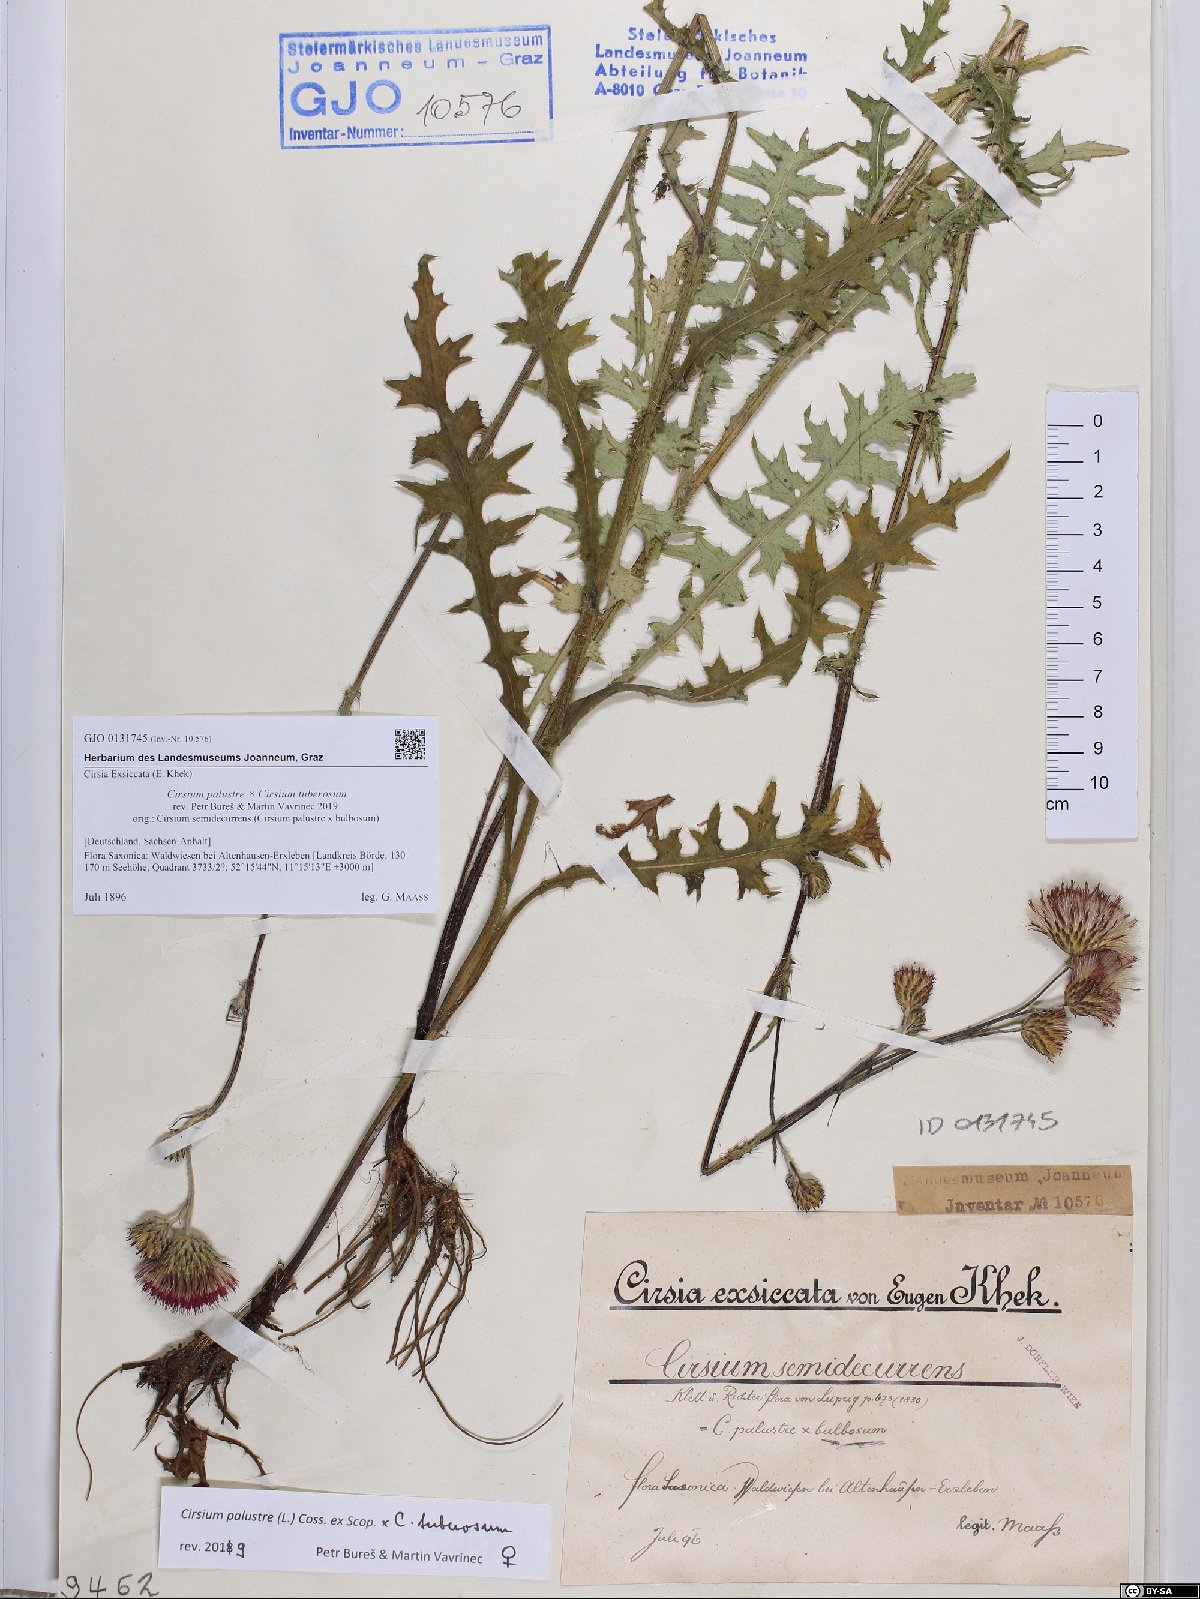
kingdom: Plantae
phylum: Tracheophyta
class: Magnoliopsida
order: Asterales
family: Asteraceae
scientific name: Asteraceae
